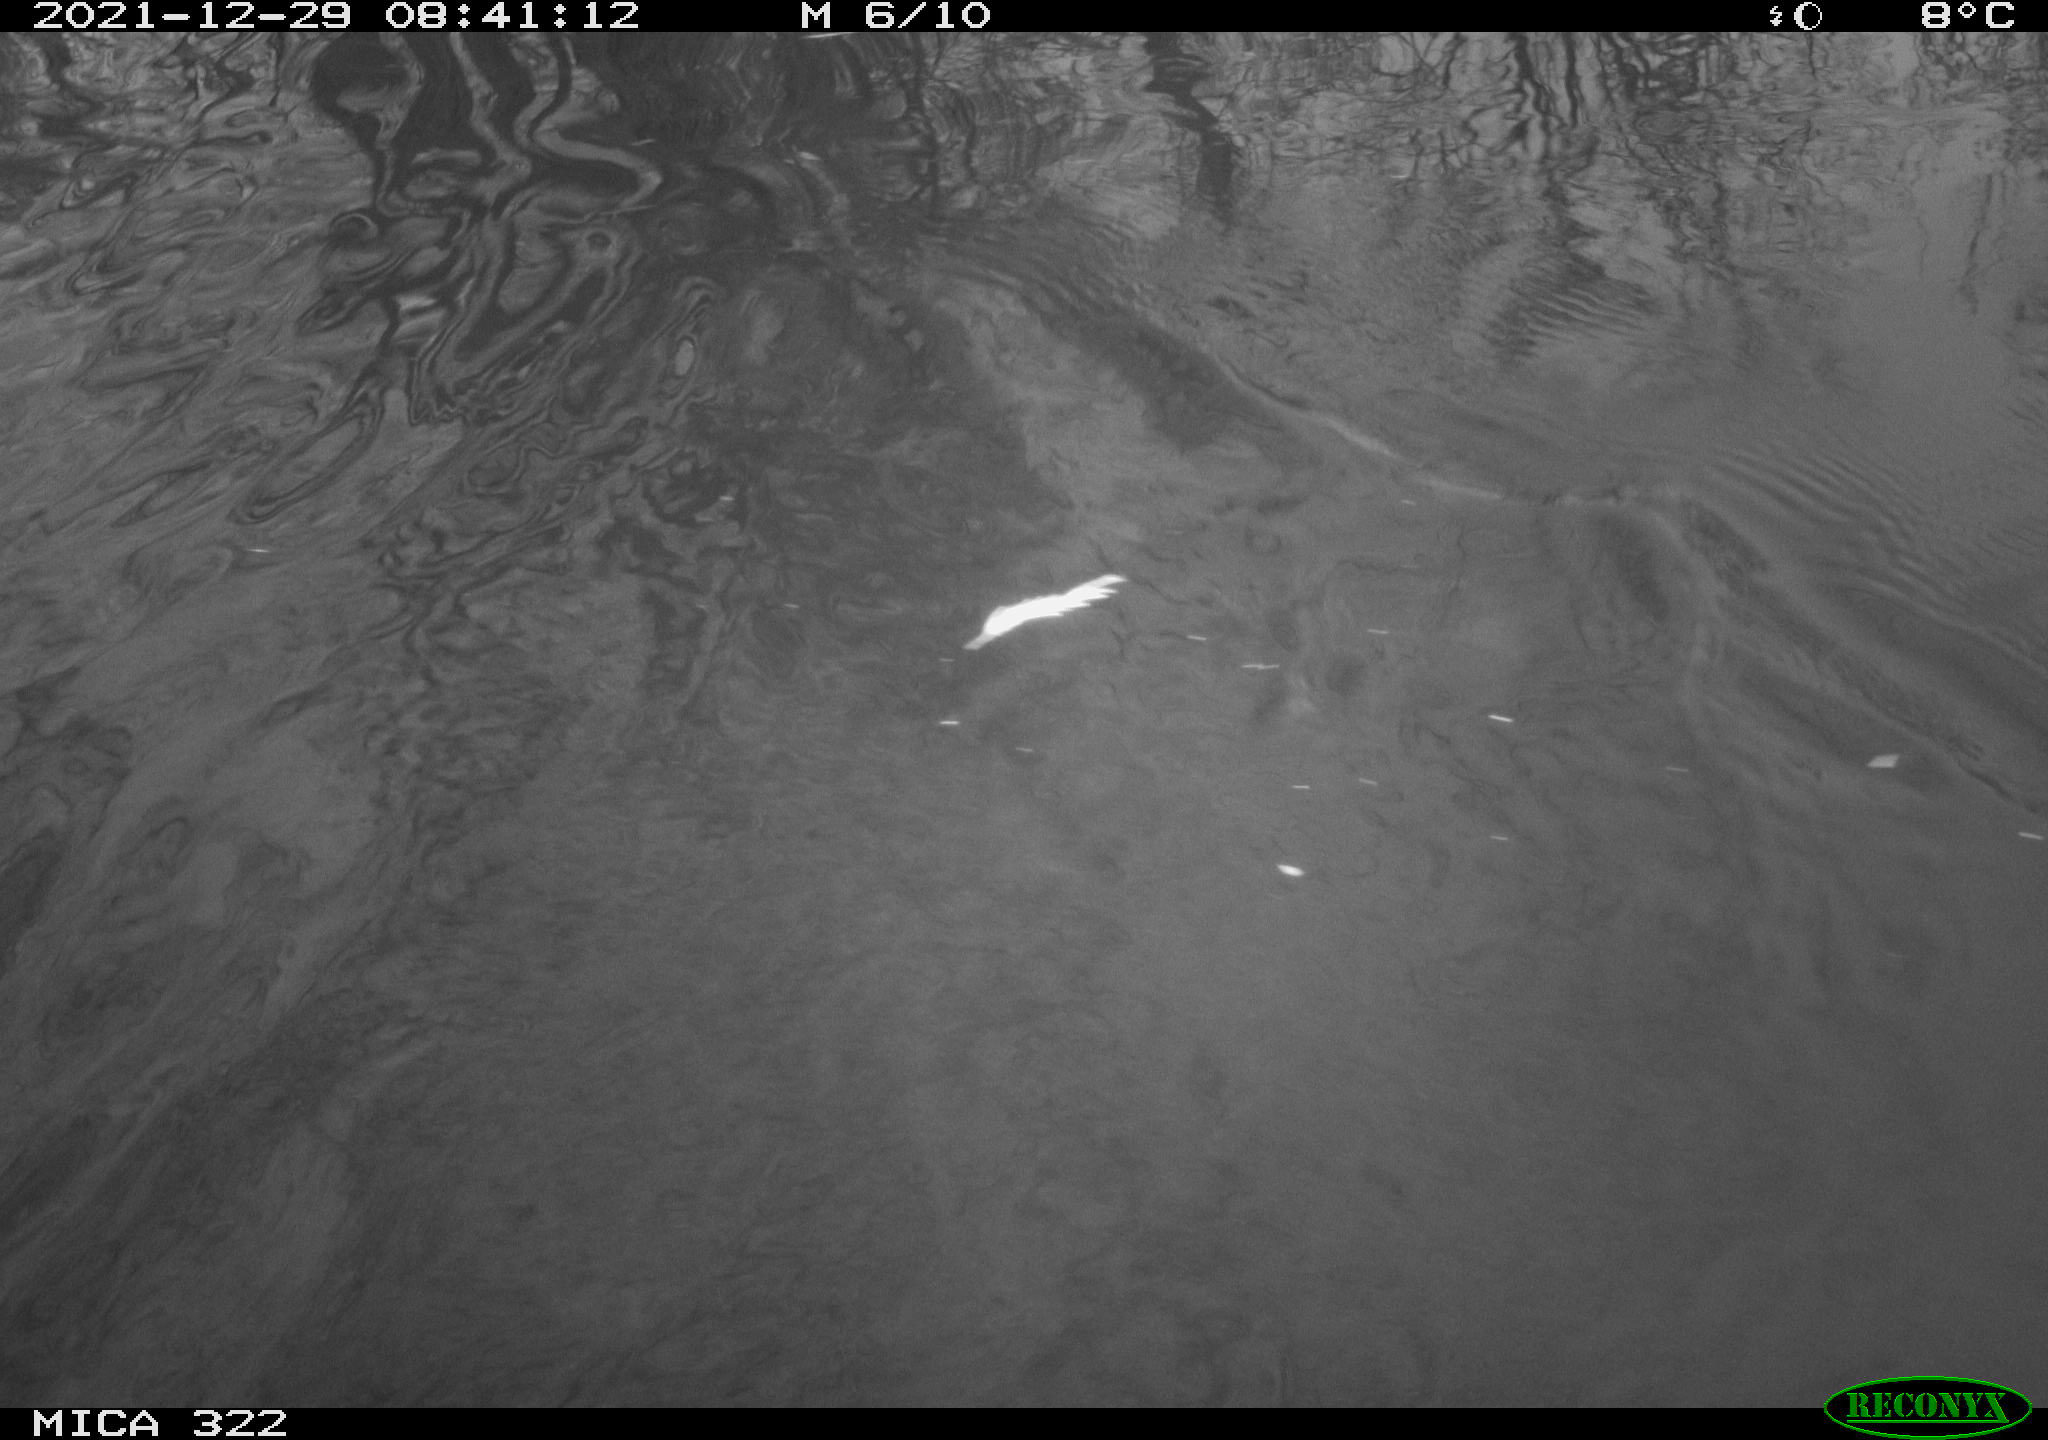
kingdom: Animalia
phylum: Chordata
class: Aves
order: Gruiformes
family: Rallidae
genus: Gallinula
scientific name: Gallinula chloropus
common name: Common moorhen
